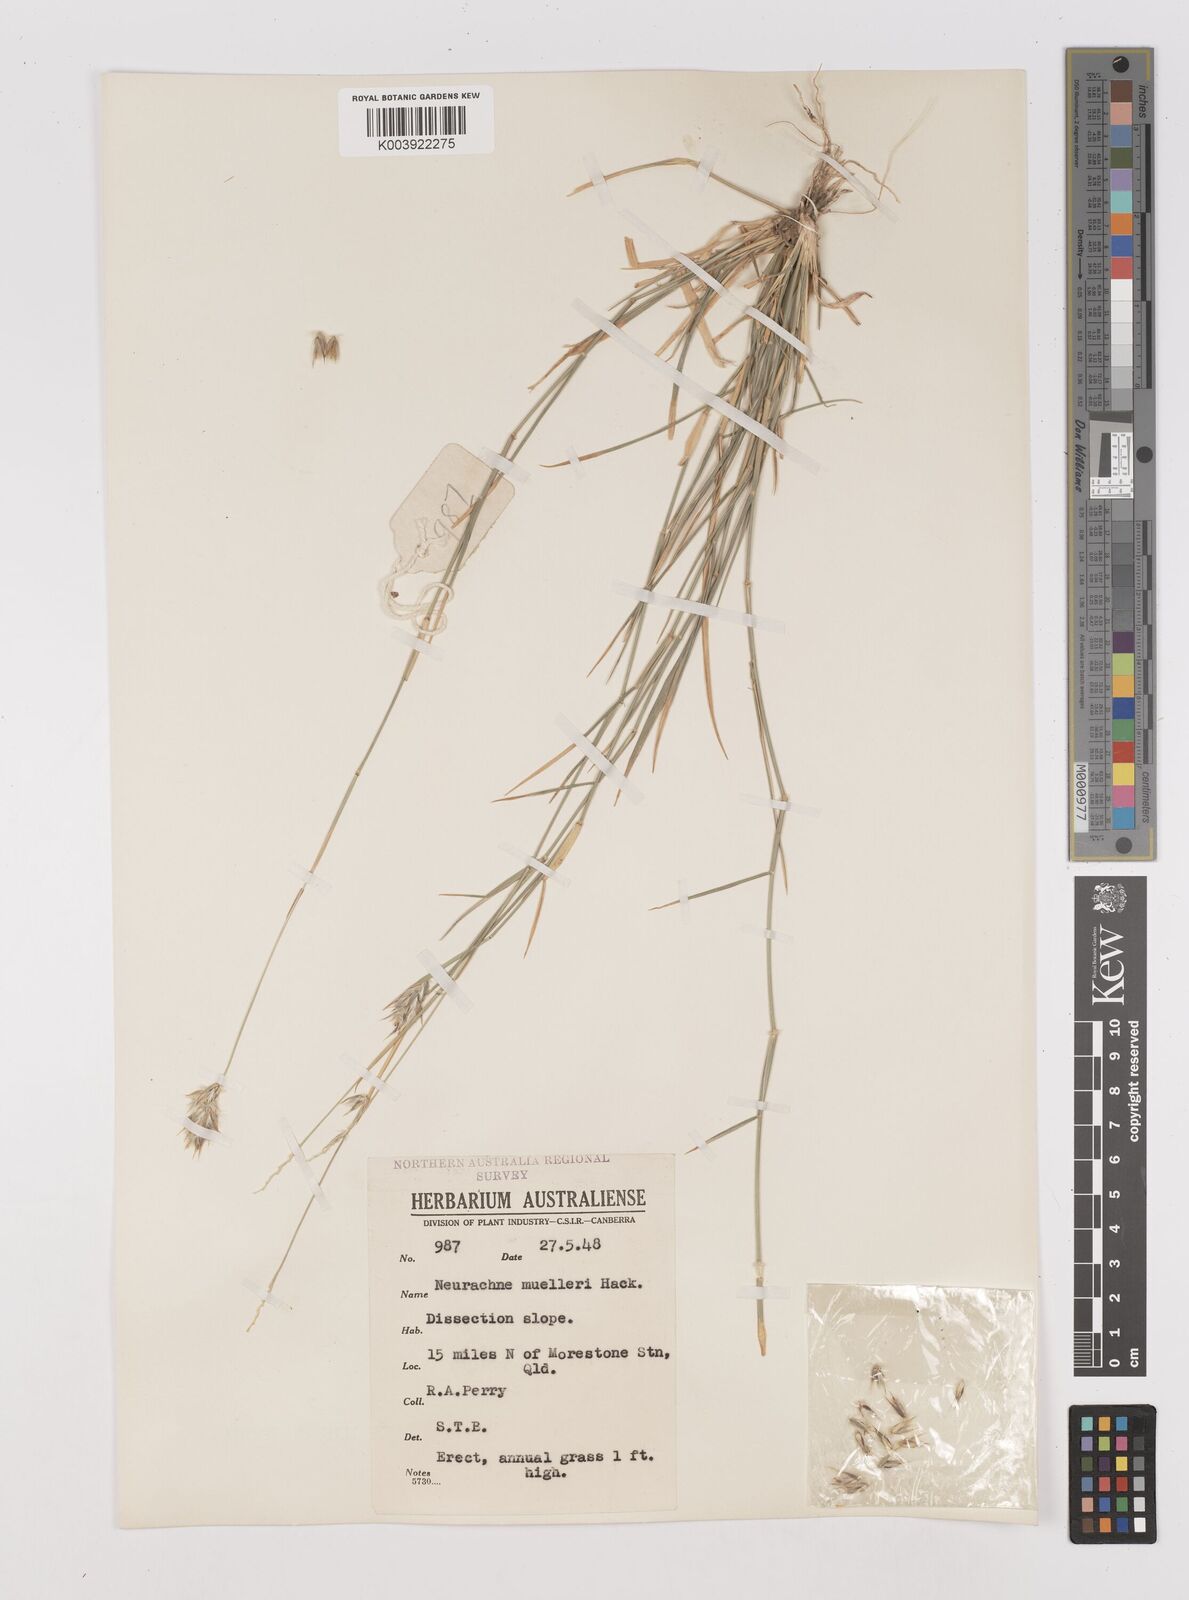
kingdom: Plantae
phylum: Tracheophyta
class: Liliopsida
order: Poales
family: Poaceae
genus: Neurachne
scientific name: Neurachne muelleri
